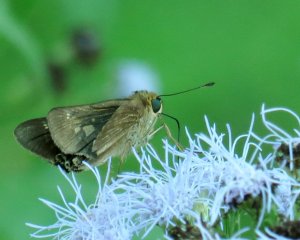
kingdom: Animalia
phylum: Arthropoda
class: Insecta
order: Lepidoptera
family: Hesperiidae
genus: Panoquina
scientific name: Panoquina ocola
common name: Ocola Skipper
